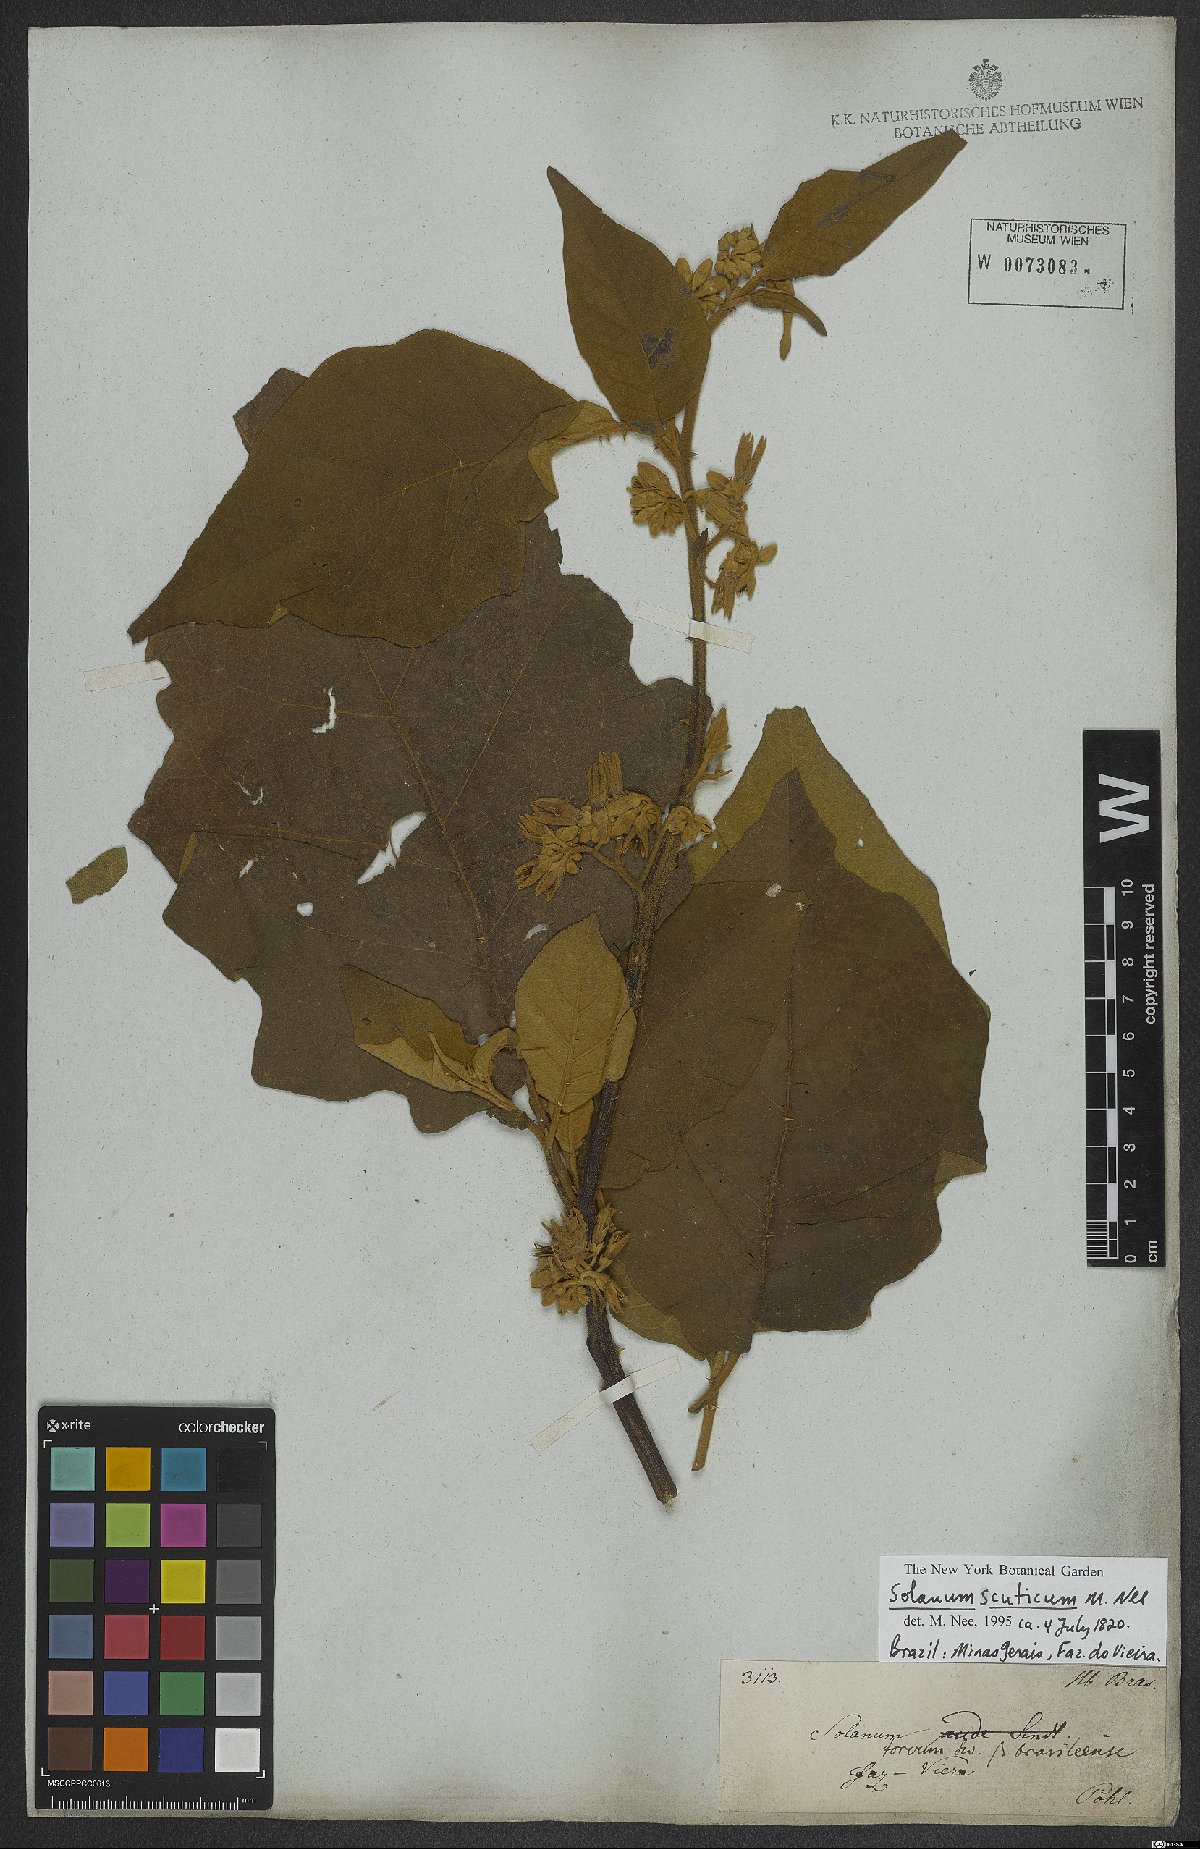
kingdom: Plantae
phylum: Tracheophyta
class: Magnoliopsida
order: Solanales
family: Solanaceae
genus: Solanum
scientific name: Solanum scuticum
